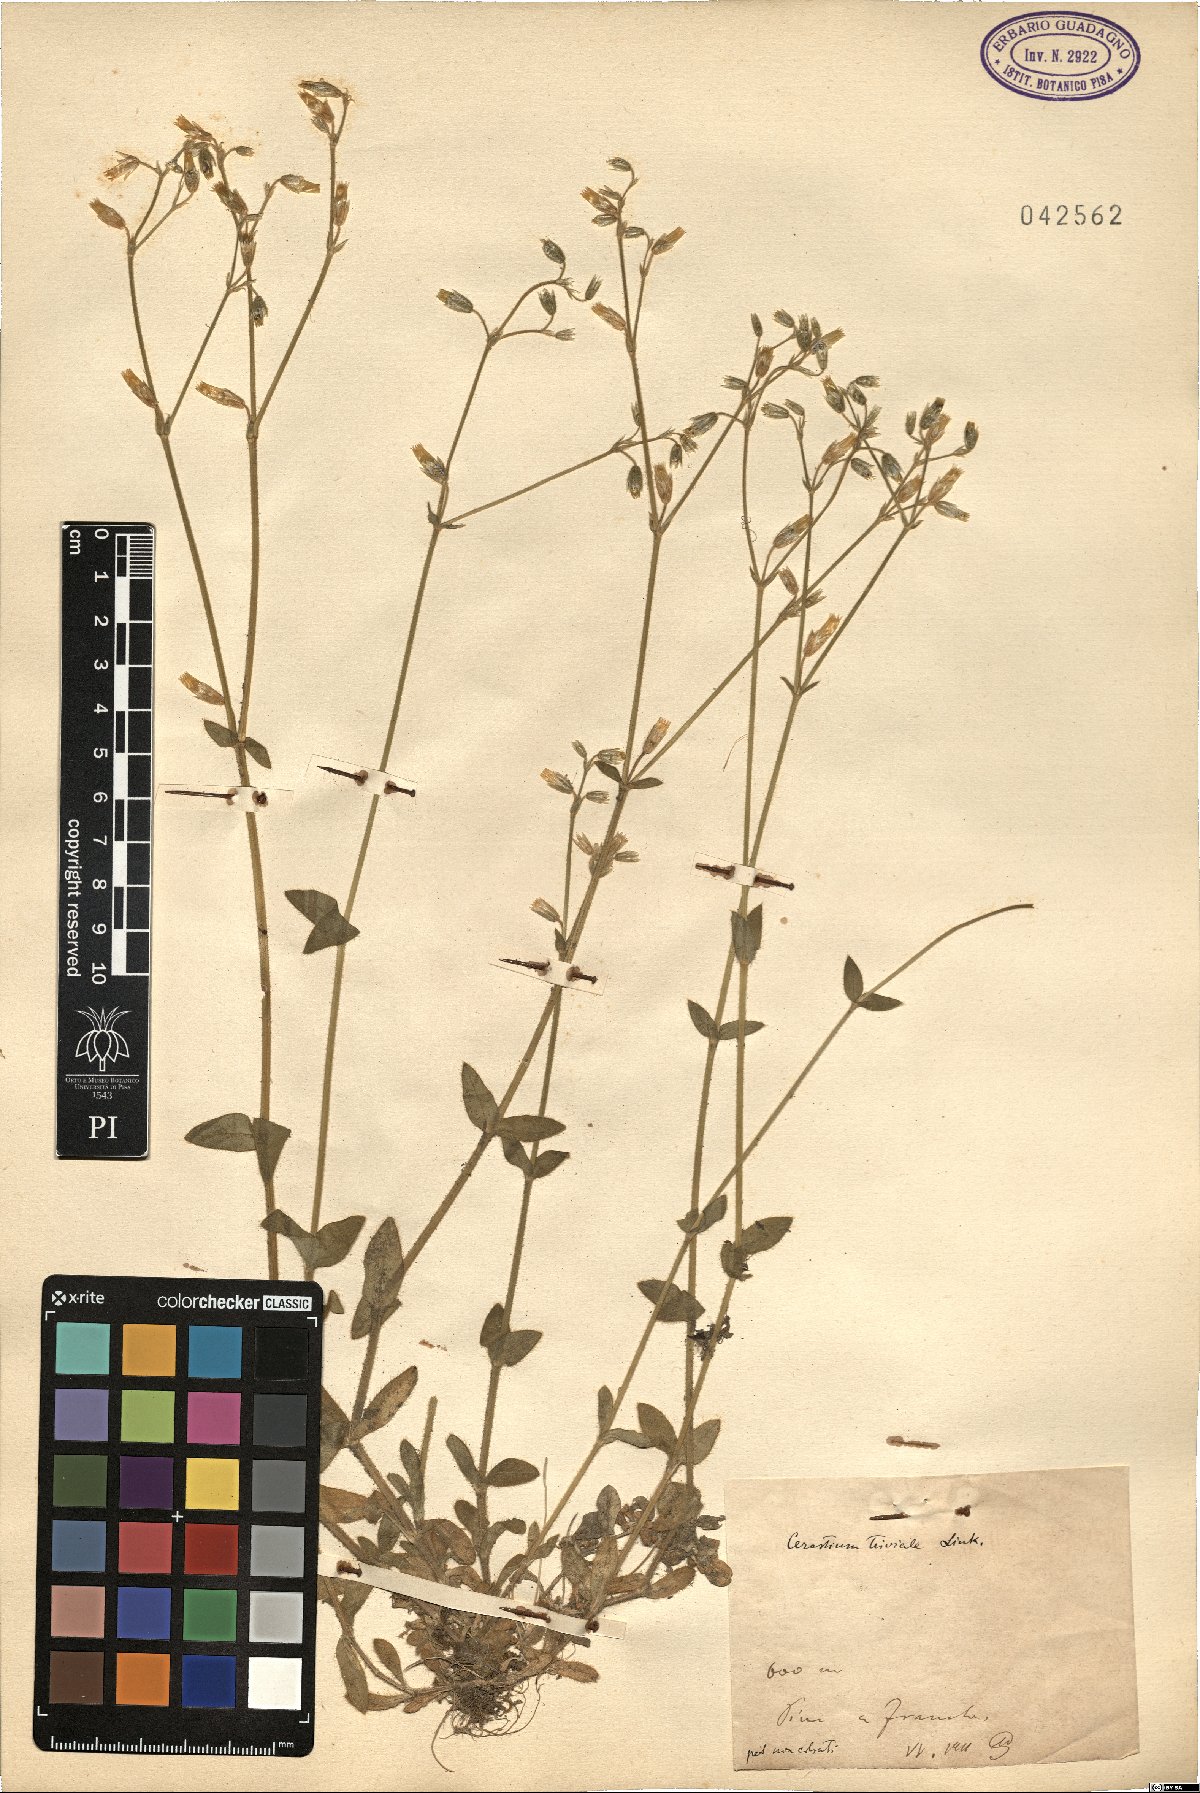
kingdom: Plantae
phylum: Tracheophyta
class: Magnoliopsida
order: Caryophyllales
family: Caryophyllaceae
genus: Cerastium
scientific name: Cerastium glomeratum
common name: Sticky chickweed
